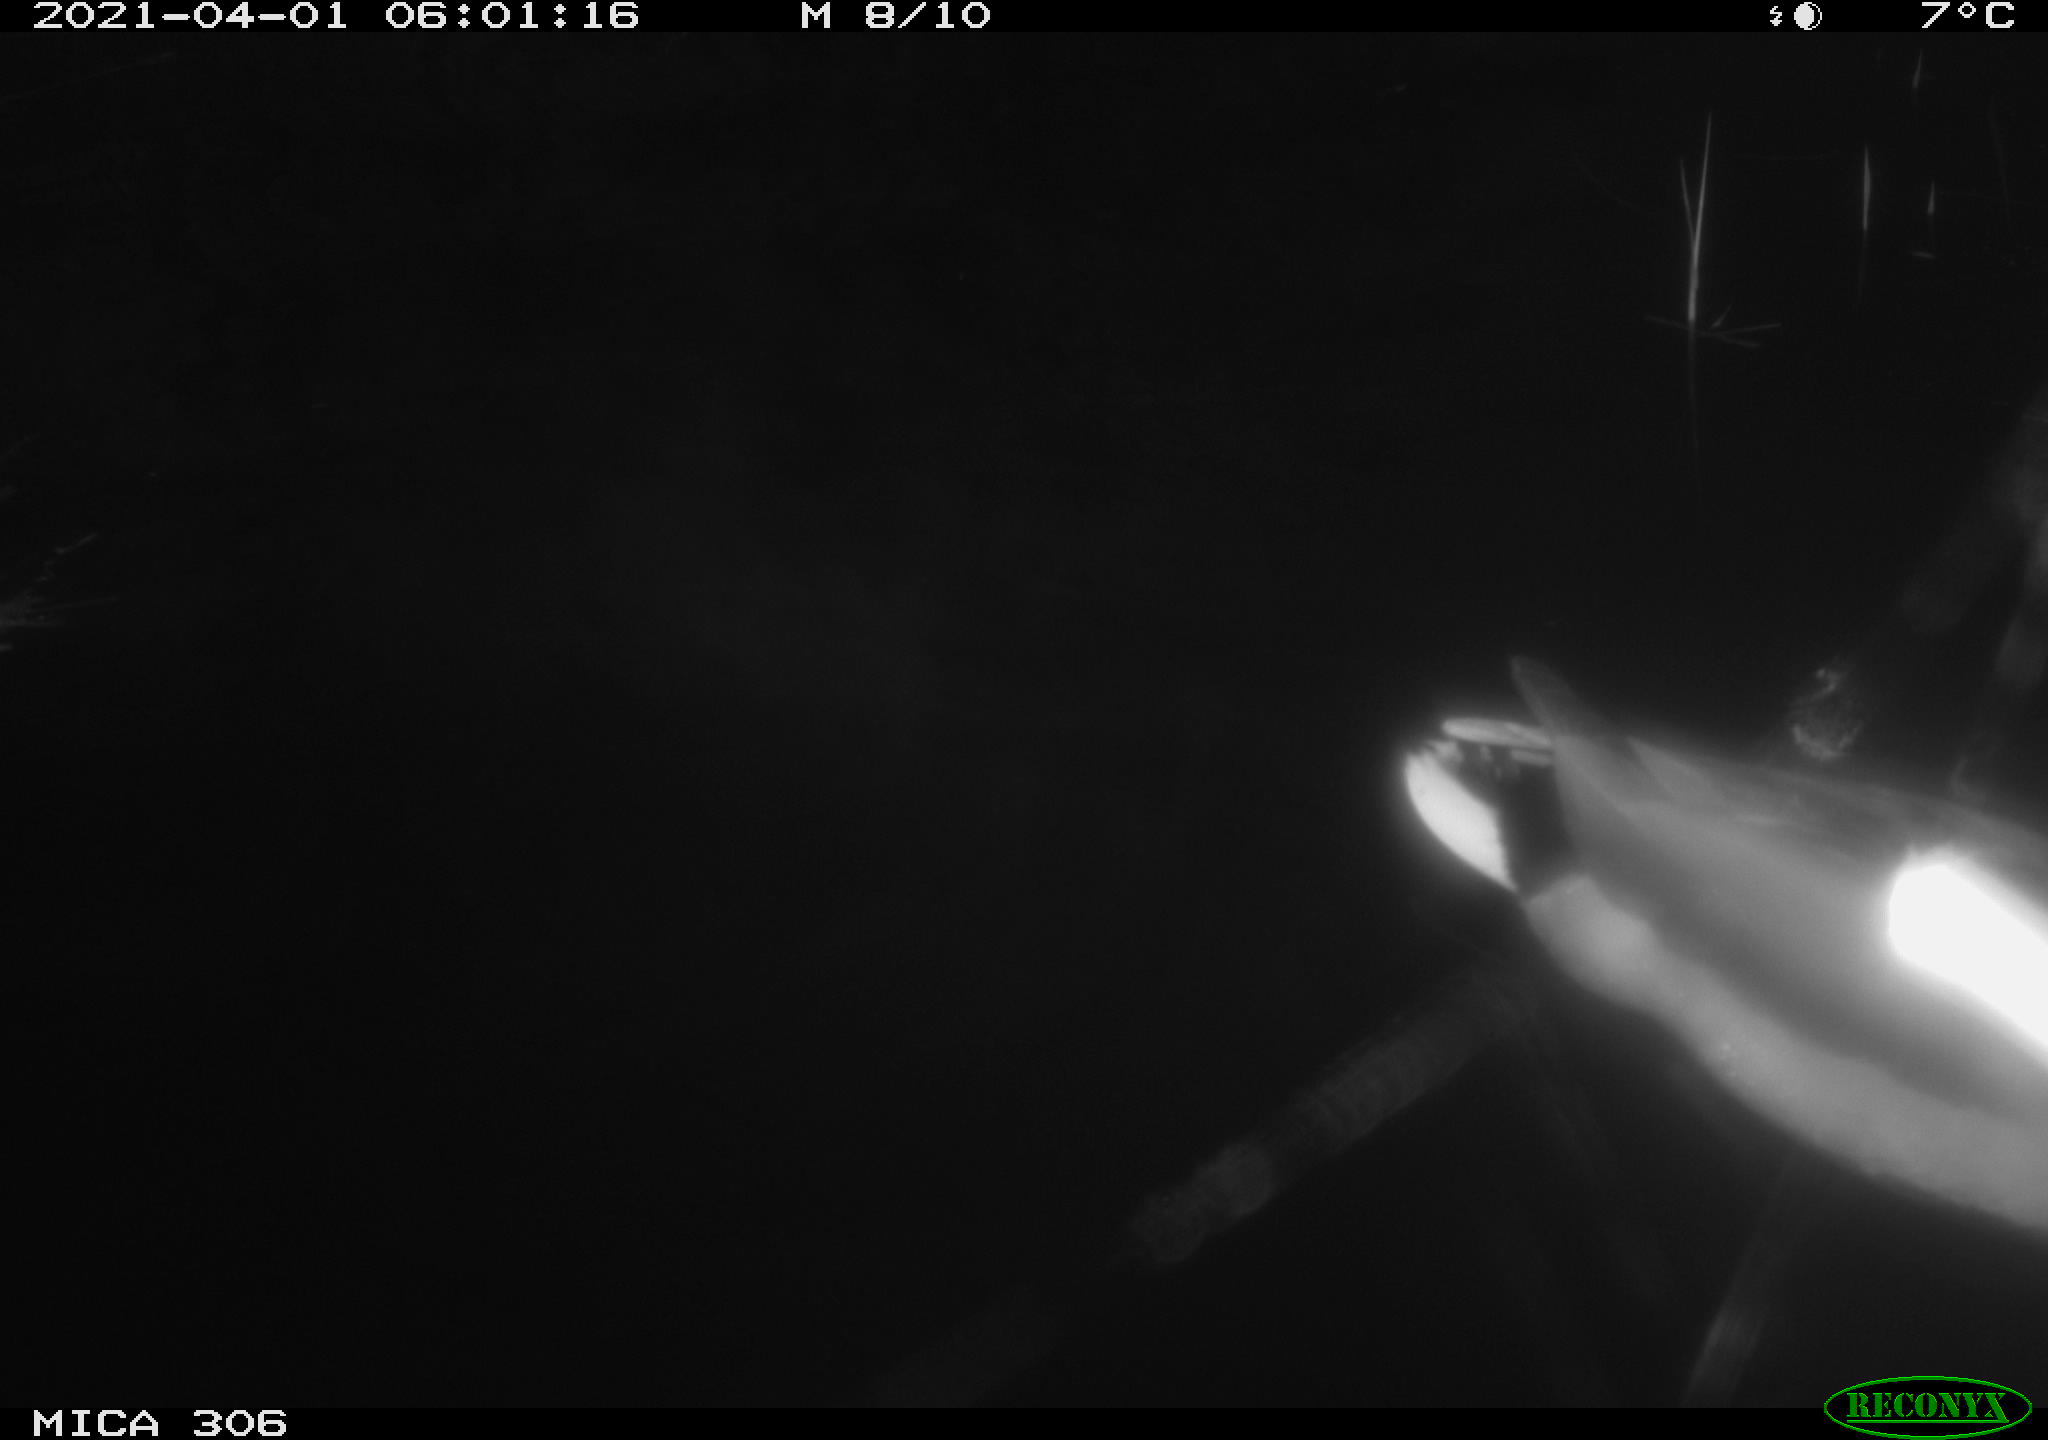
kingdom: Animalia
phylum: Chordata
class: Aves
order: Anseriformes
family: Anatidae
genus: Anas
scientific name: Anas platyrhynchos
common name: Mallard
